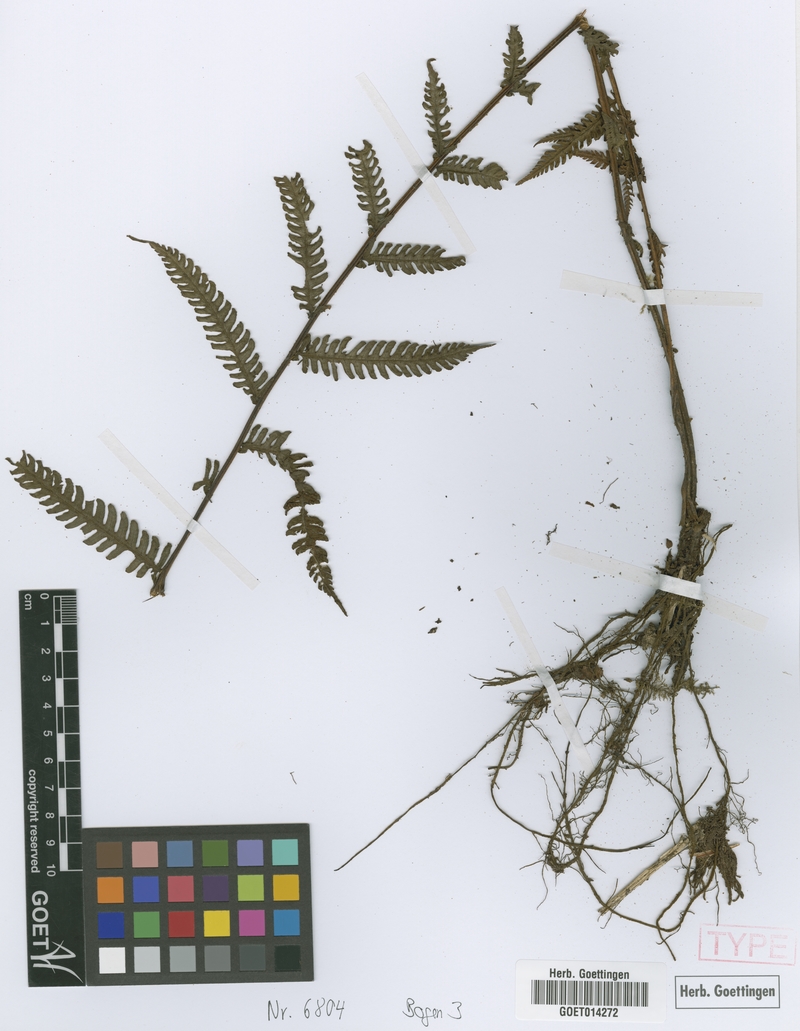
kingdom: Plantae
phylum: Tracheophyta
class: Polypodiopsida
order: Polypodiales
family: Thelypteridaceae
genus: Amauropelta
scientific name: Amauropelta yungensis
